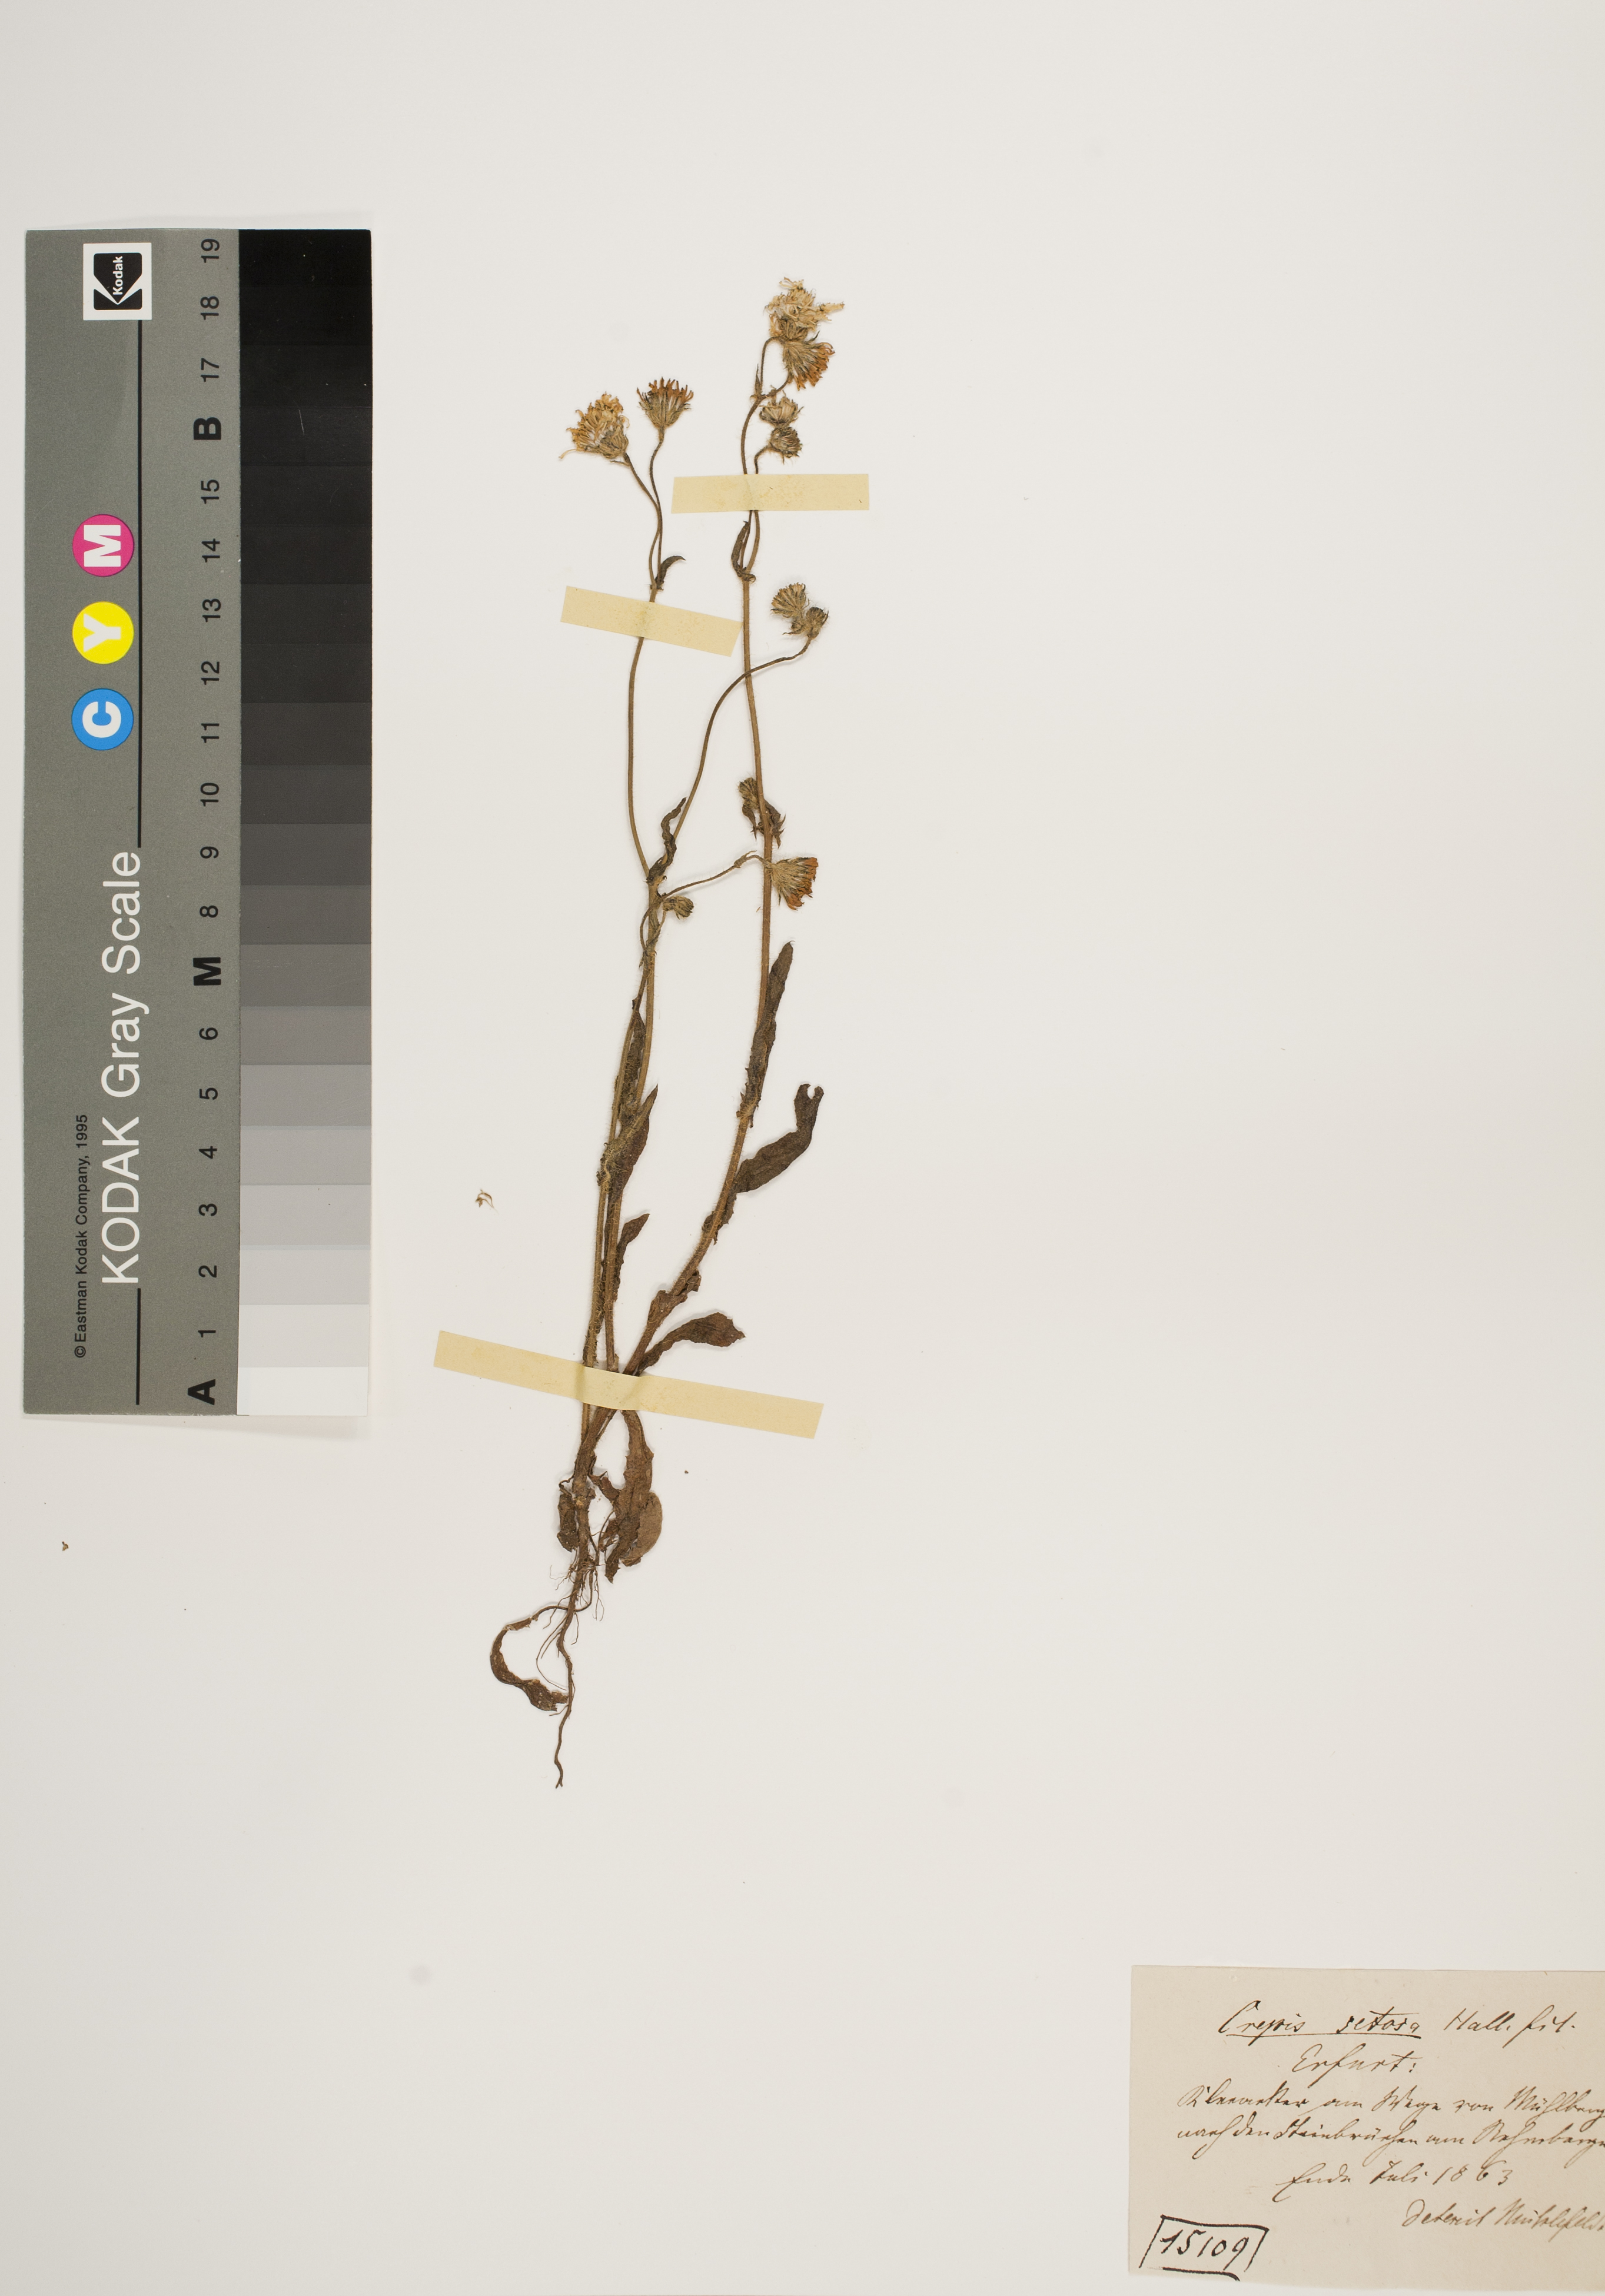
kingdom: Plantae
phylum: Tracheophyta
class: Magnoliopsida
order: Asterales
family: Asteraceae
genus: Crepis
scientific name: Crepis setosa
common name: Bristly hawk's-beard
